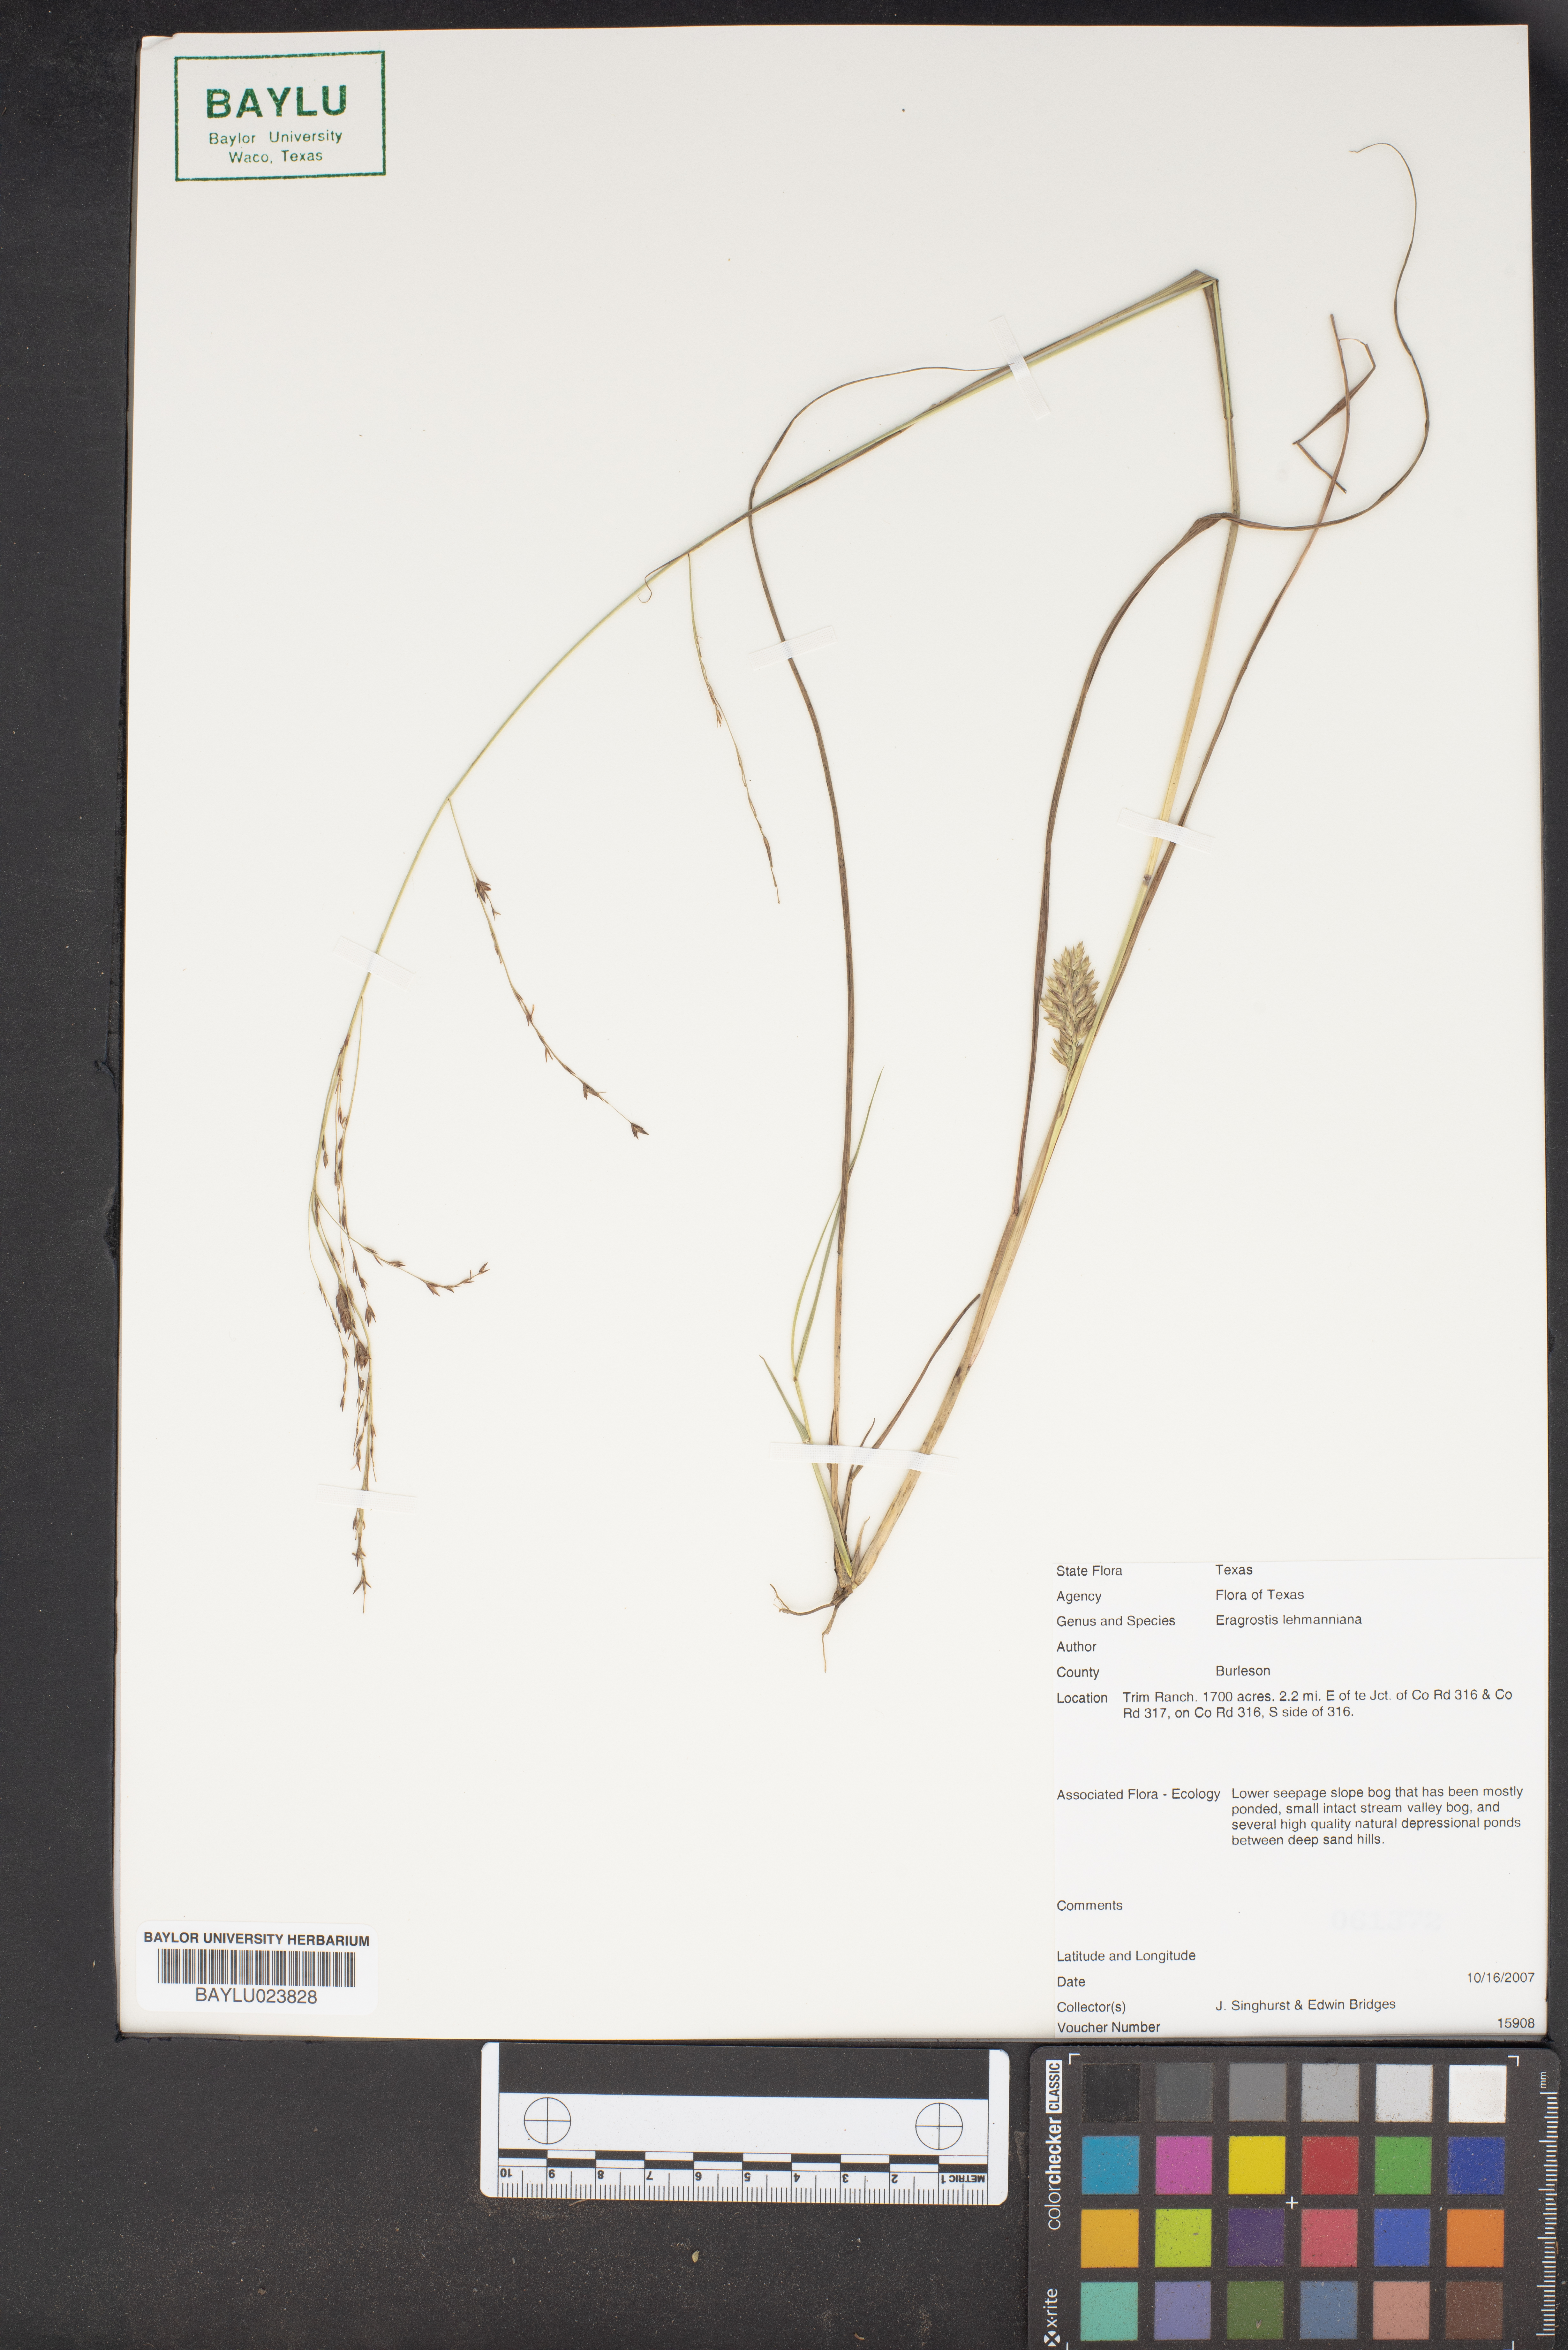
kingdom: Plantae
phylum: Tracheophyta
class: Liliopsida
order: Poales
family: Poaceae
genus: Eragrostis
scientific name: Eragrostis lehmanniana
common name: Lehmann lovegrass
